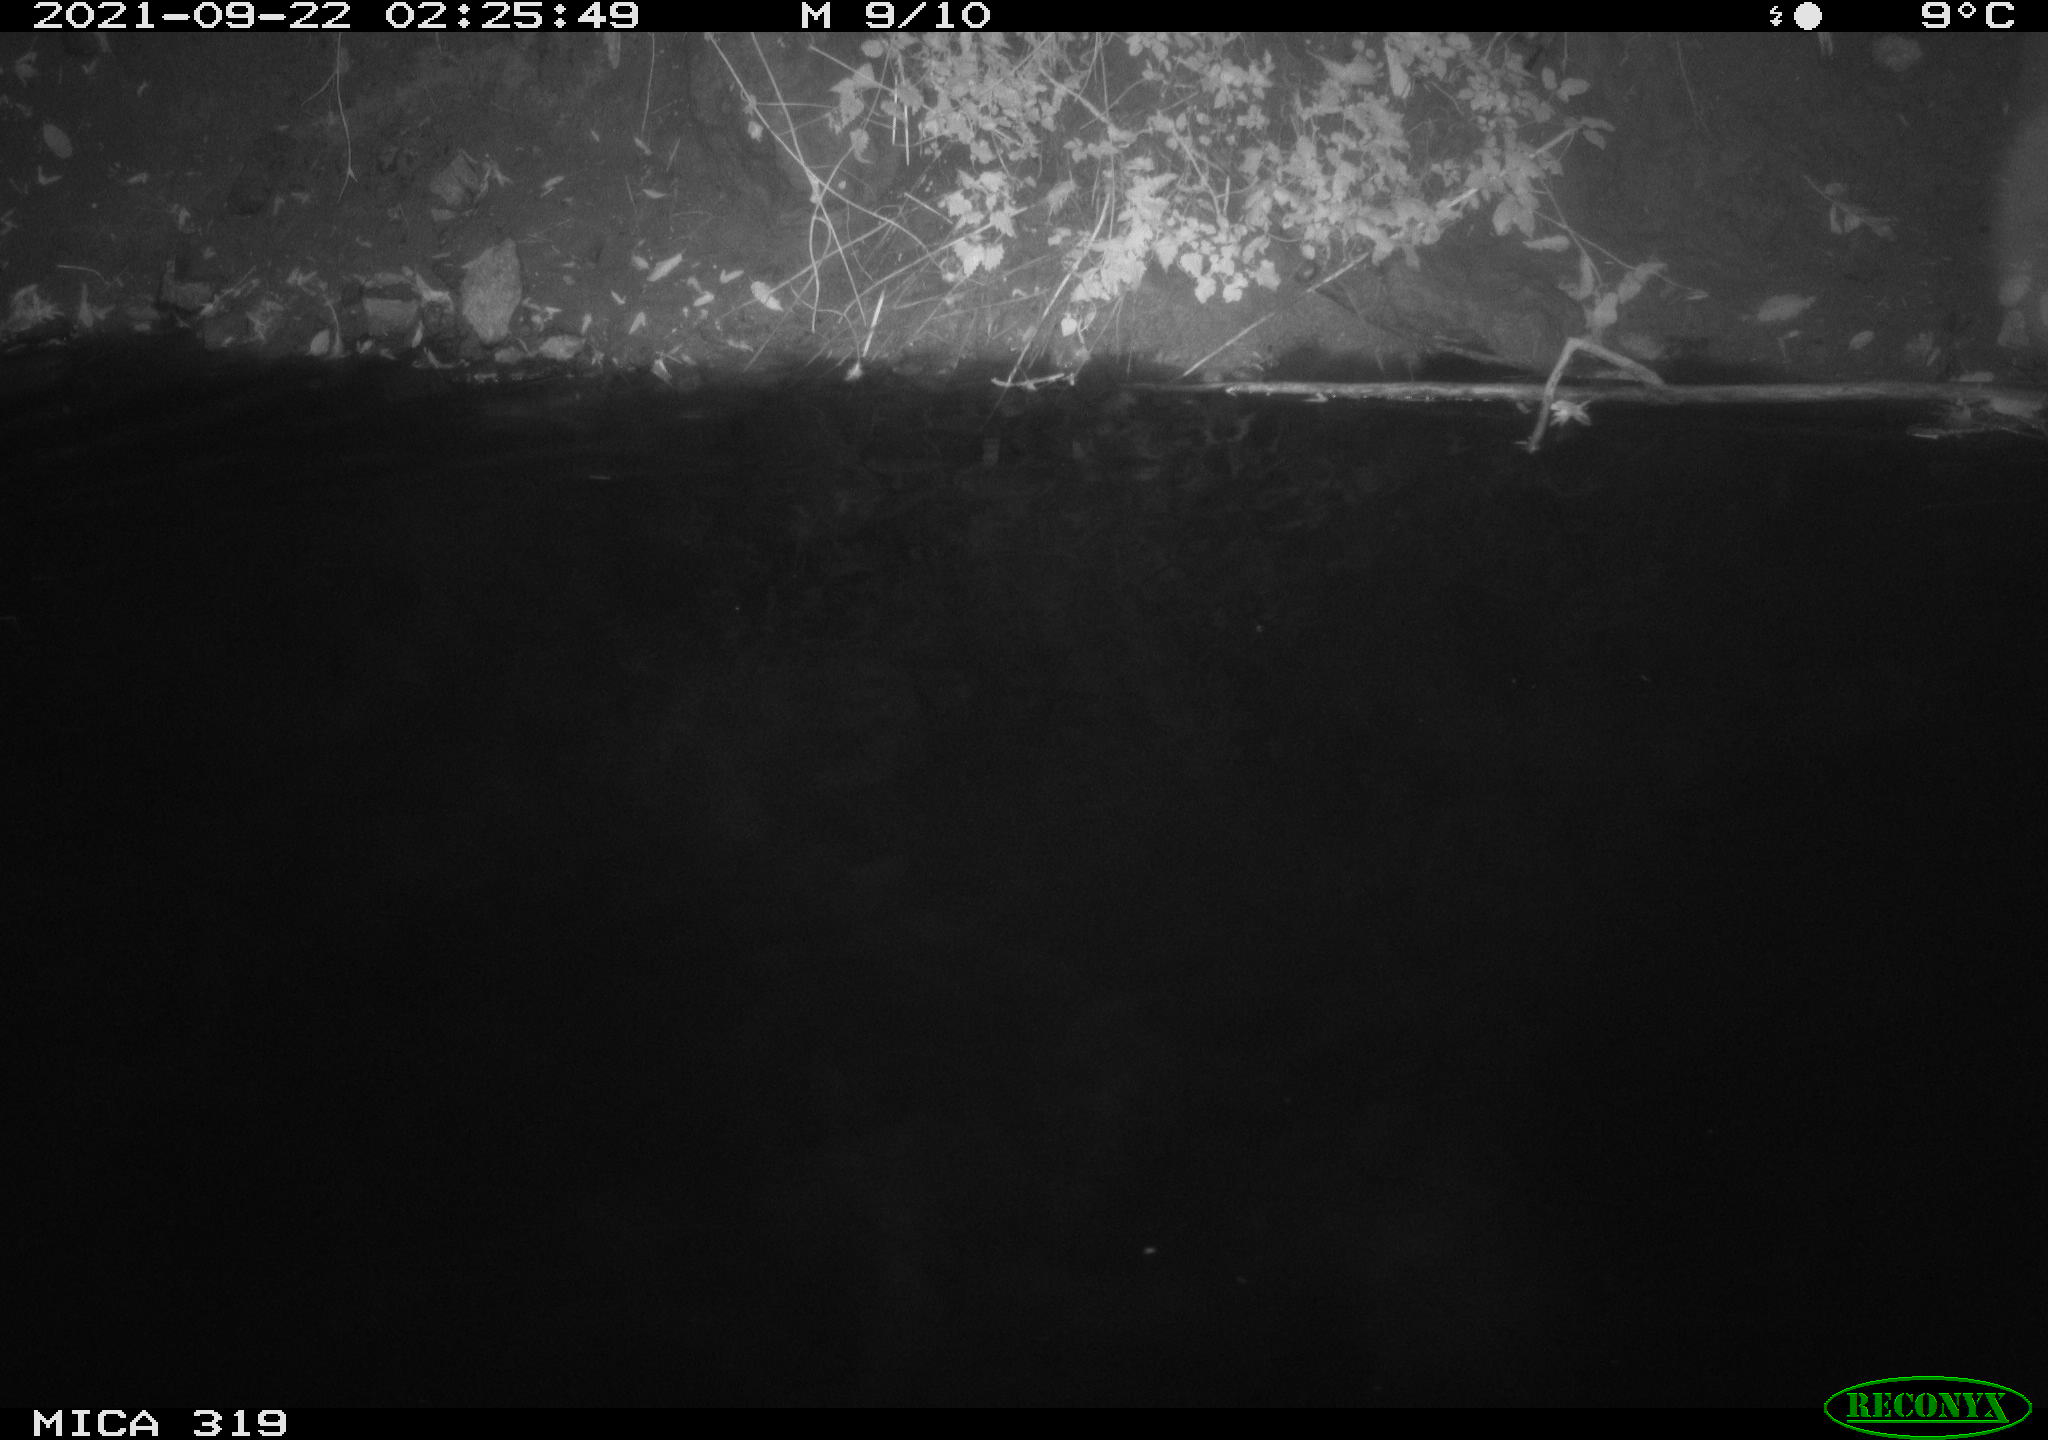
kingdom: Animalia
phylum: Chordata
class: Aves
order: Anseriformes
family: Anatidae
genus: Anas
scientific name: Anas platyrhynchos
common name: Mallard
